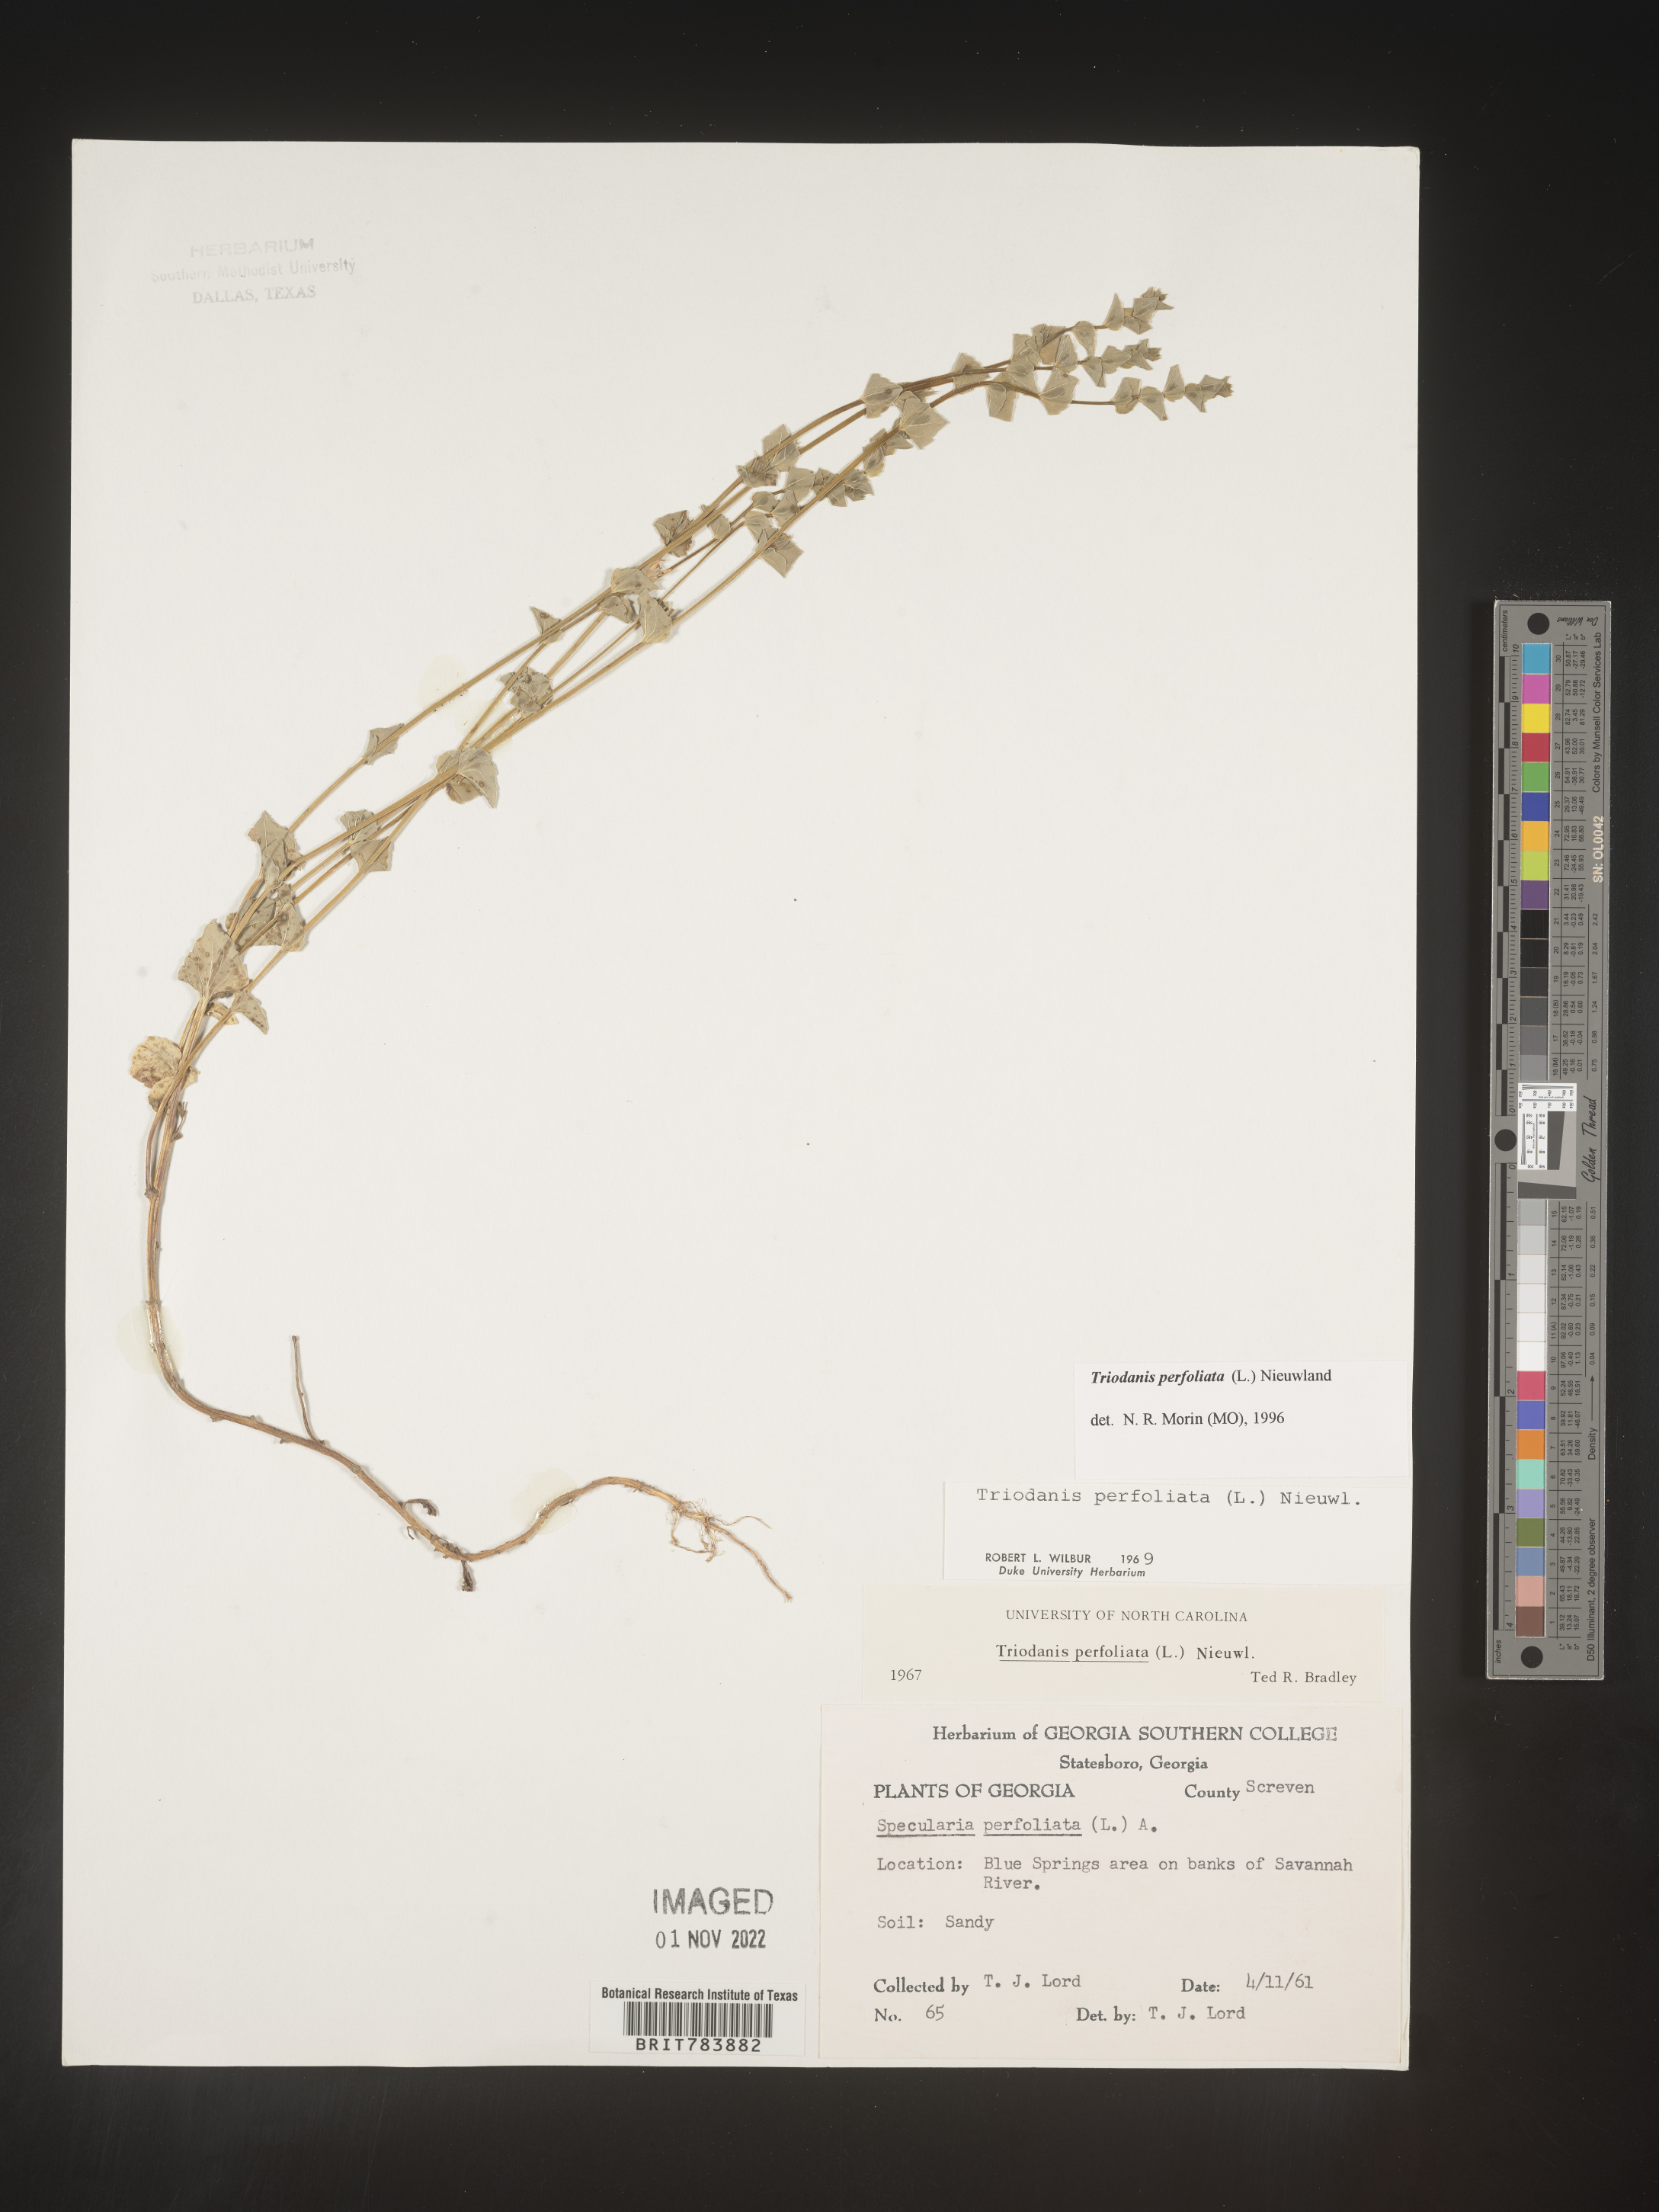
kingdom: Plantae
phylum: Tracheophyta
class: Magnoliopsida
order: Asterales
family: Campanulaceae
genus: Triodanis
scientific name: Triodanis perfoliata
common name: Clasping venus' looking-glass
